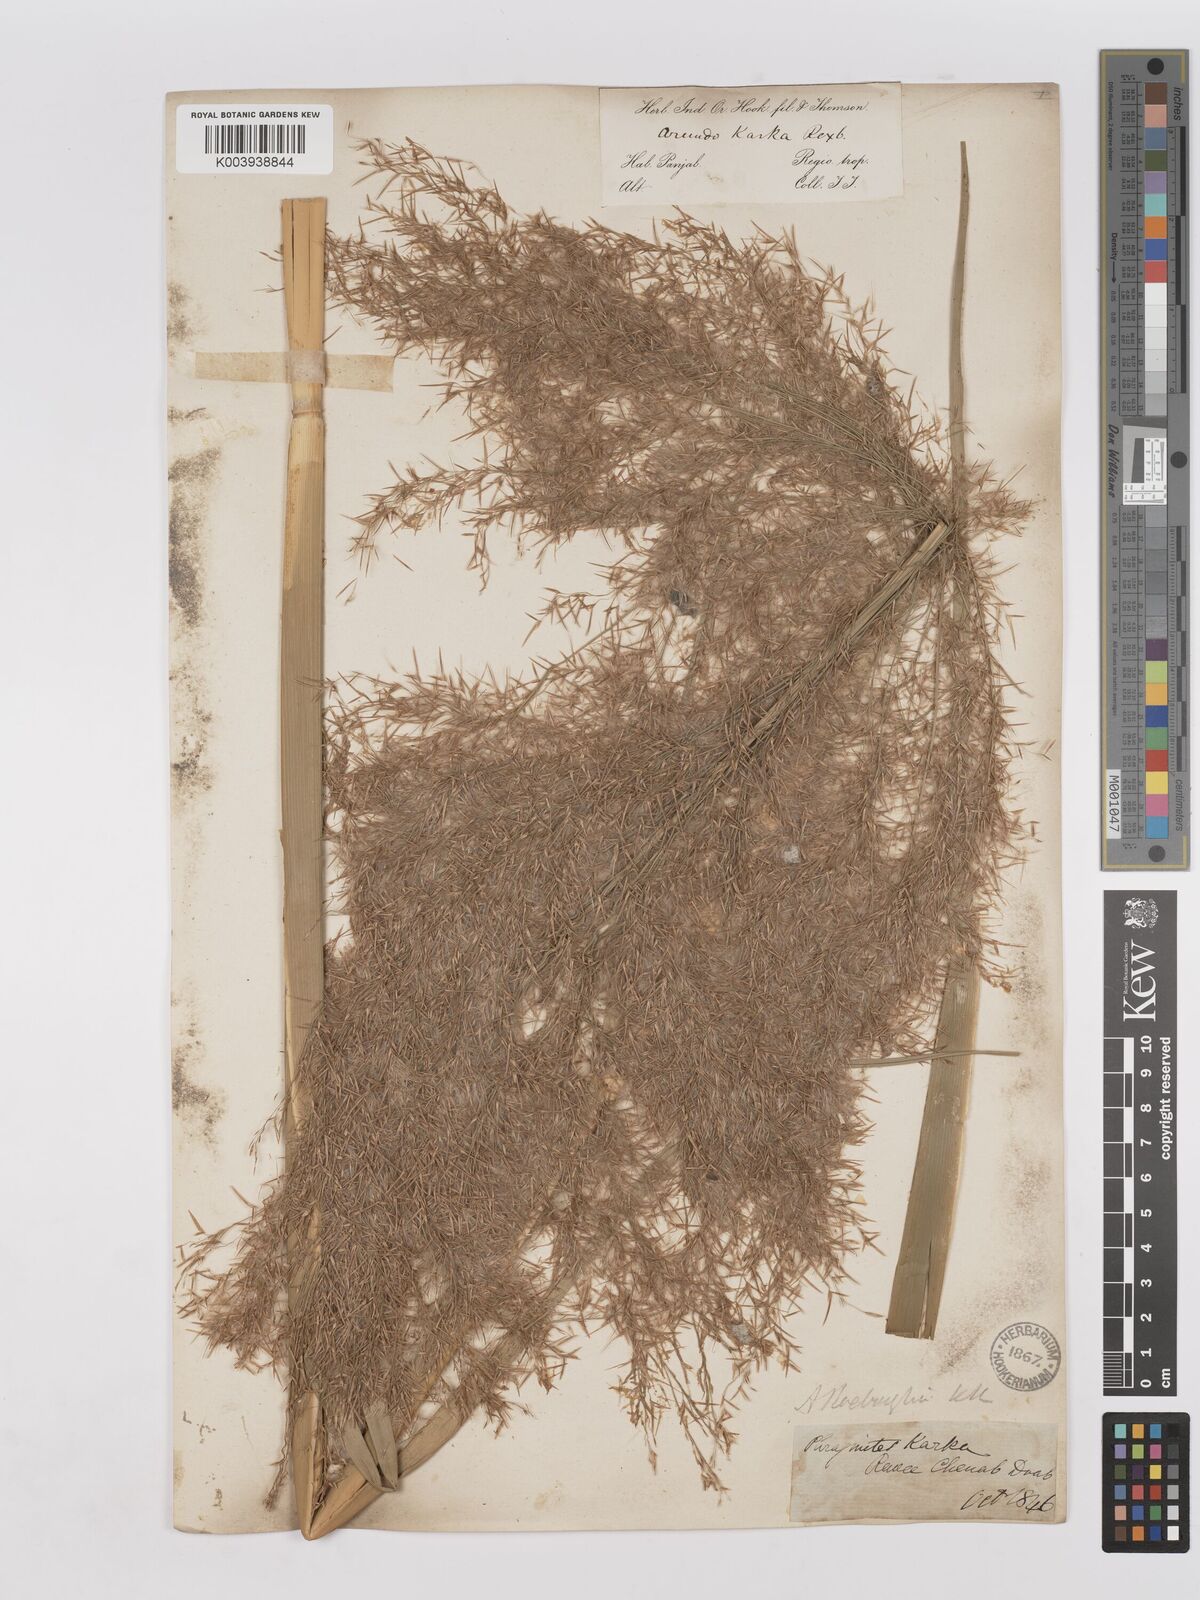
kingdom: Plantae
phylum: Tracheophyta
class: Liliopsida
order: Poales
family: Poaceae
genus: Phragmites
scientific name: Phragmites karka
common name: Tropical reed
